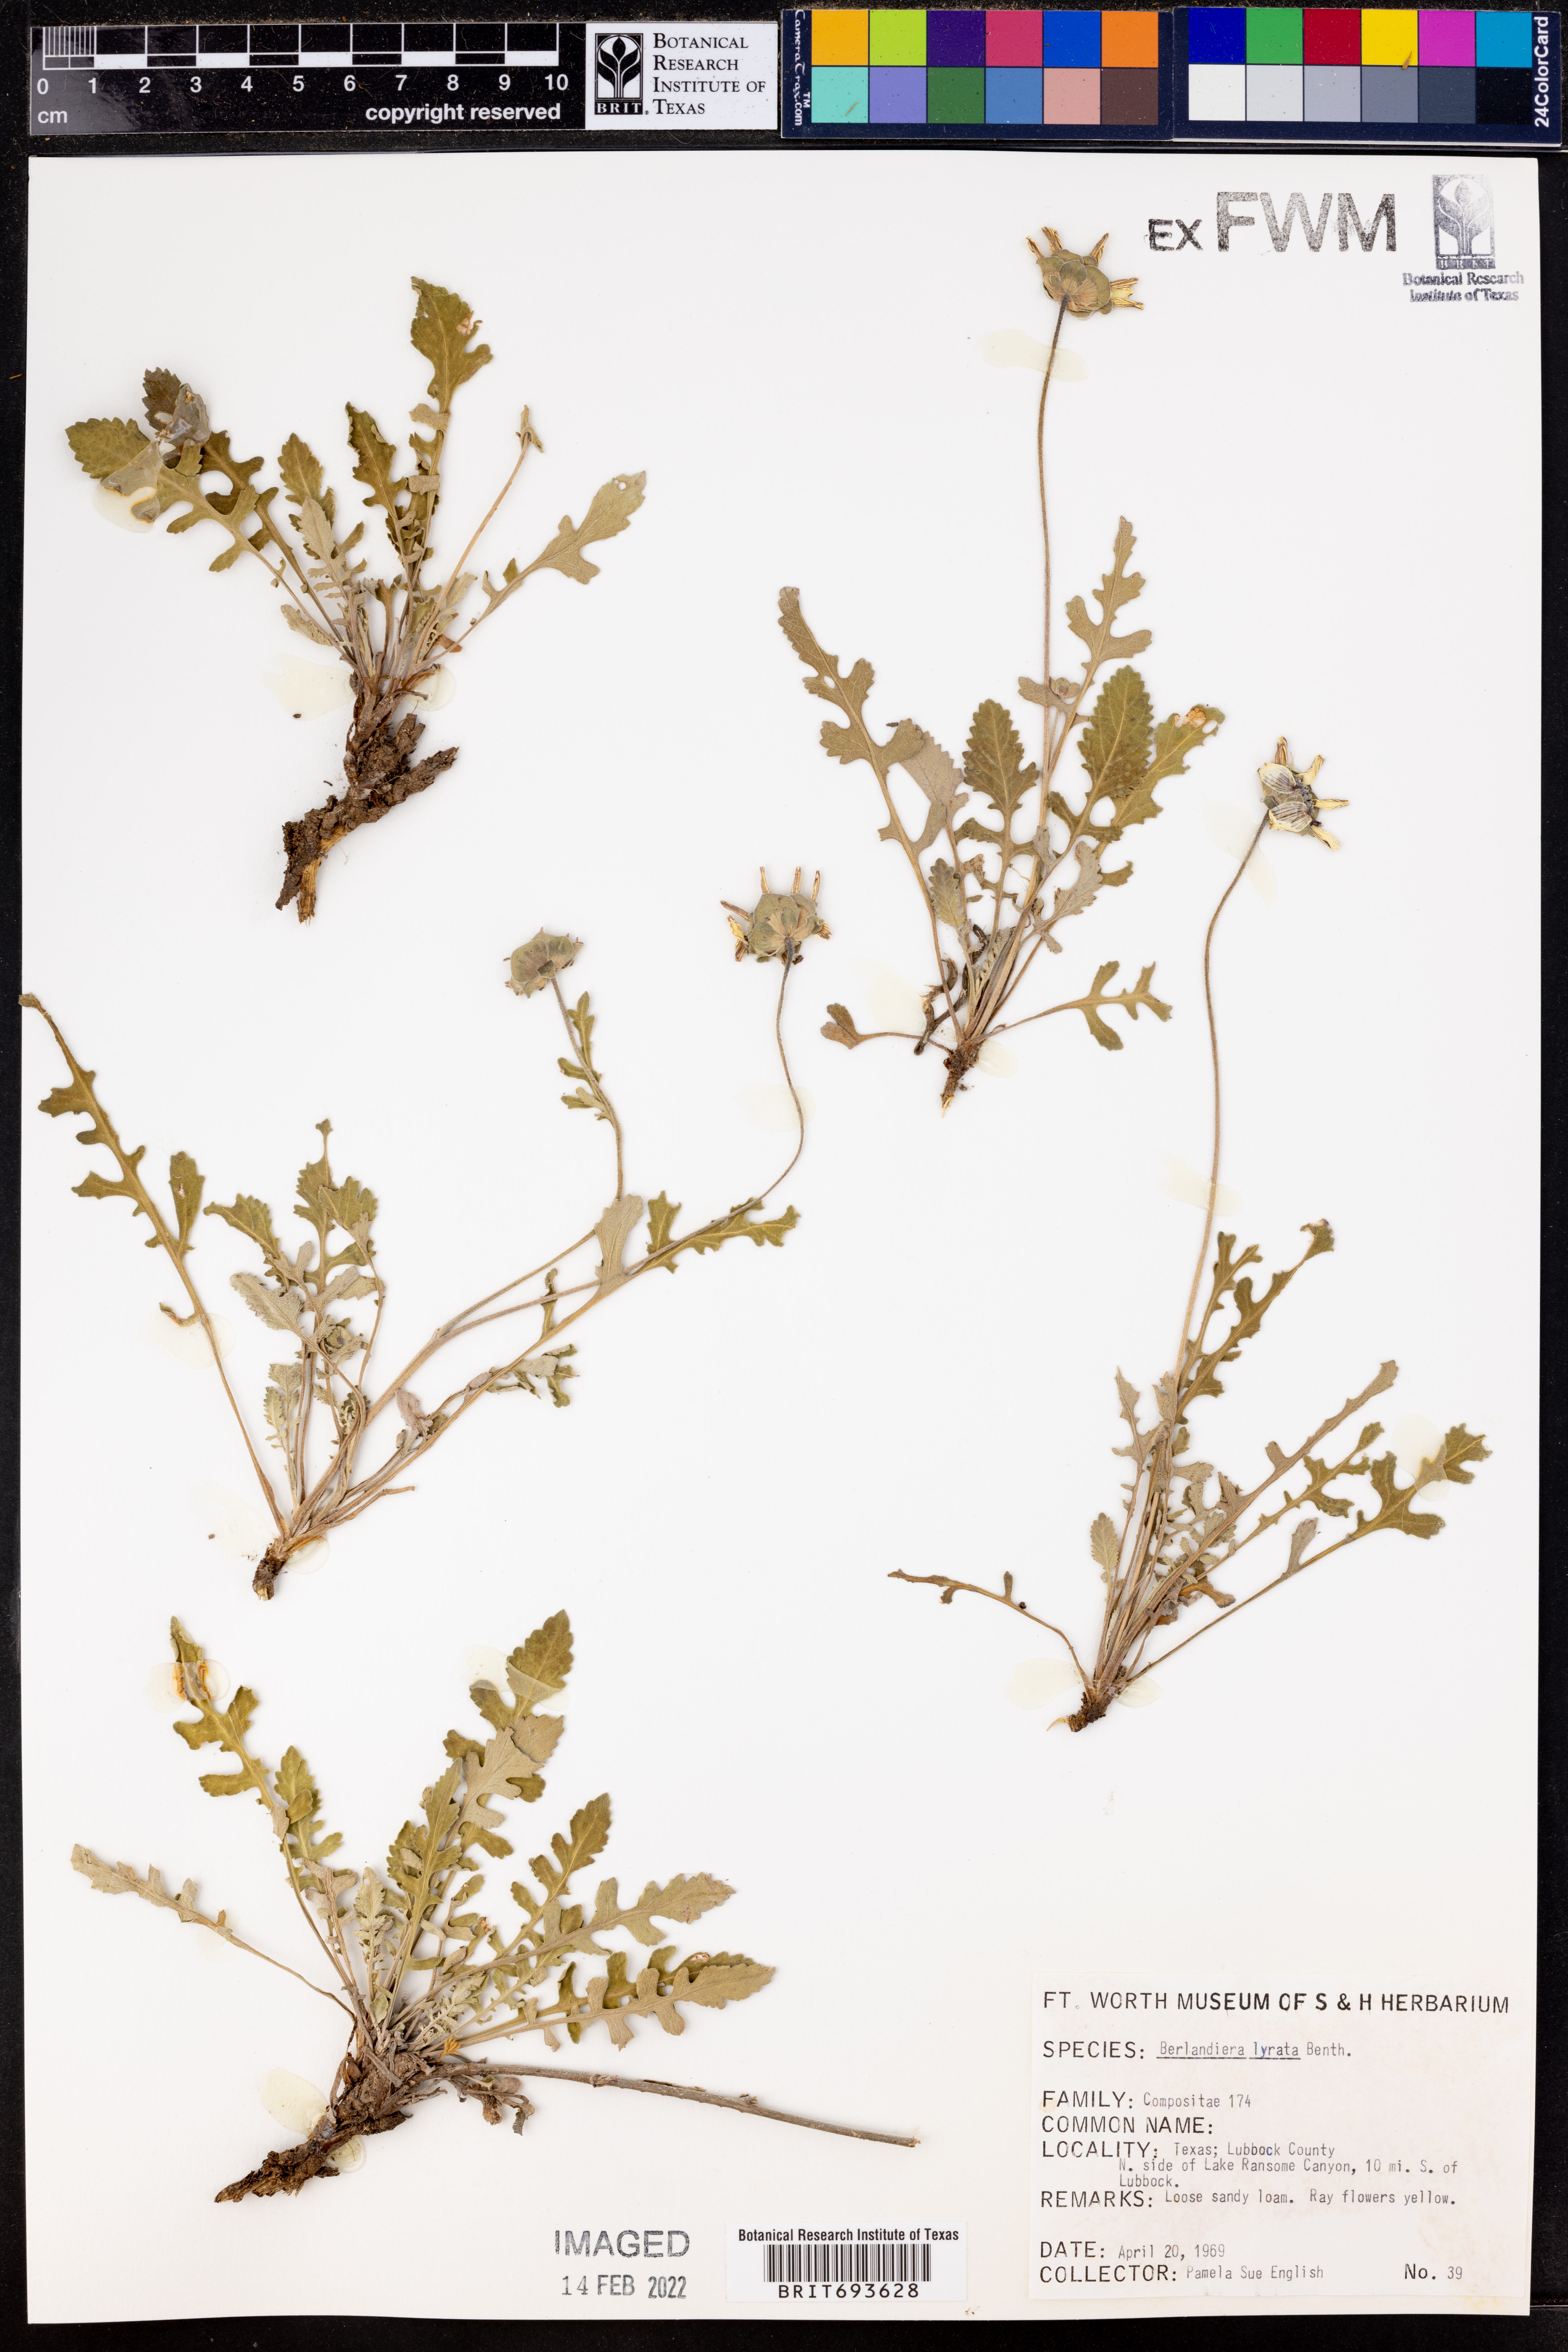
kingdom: Plantae
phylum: Tracheophyta
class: Magnoliopsida
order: Asterales
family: Asteraceae
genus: Berlandiera
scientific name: Berlandiera lyrata
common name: Chocolate-flower
